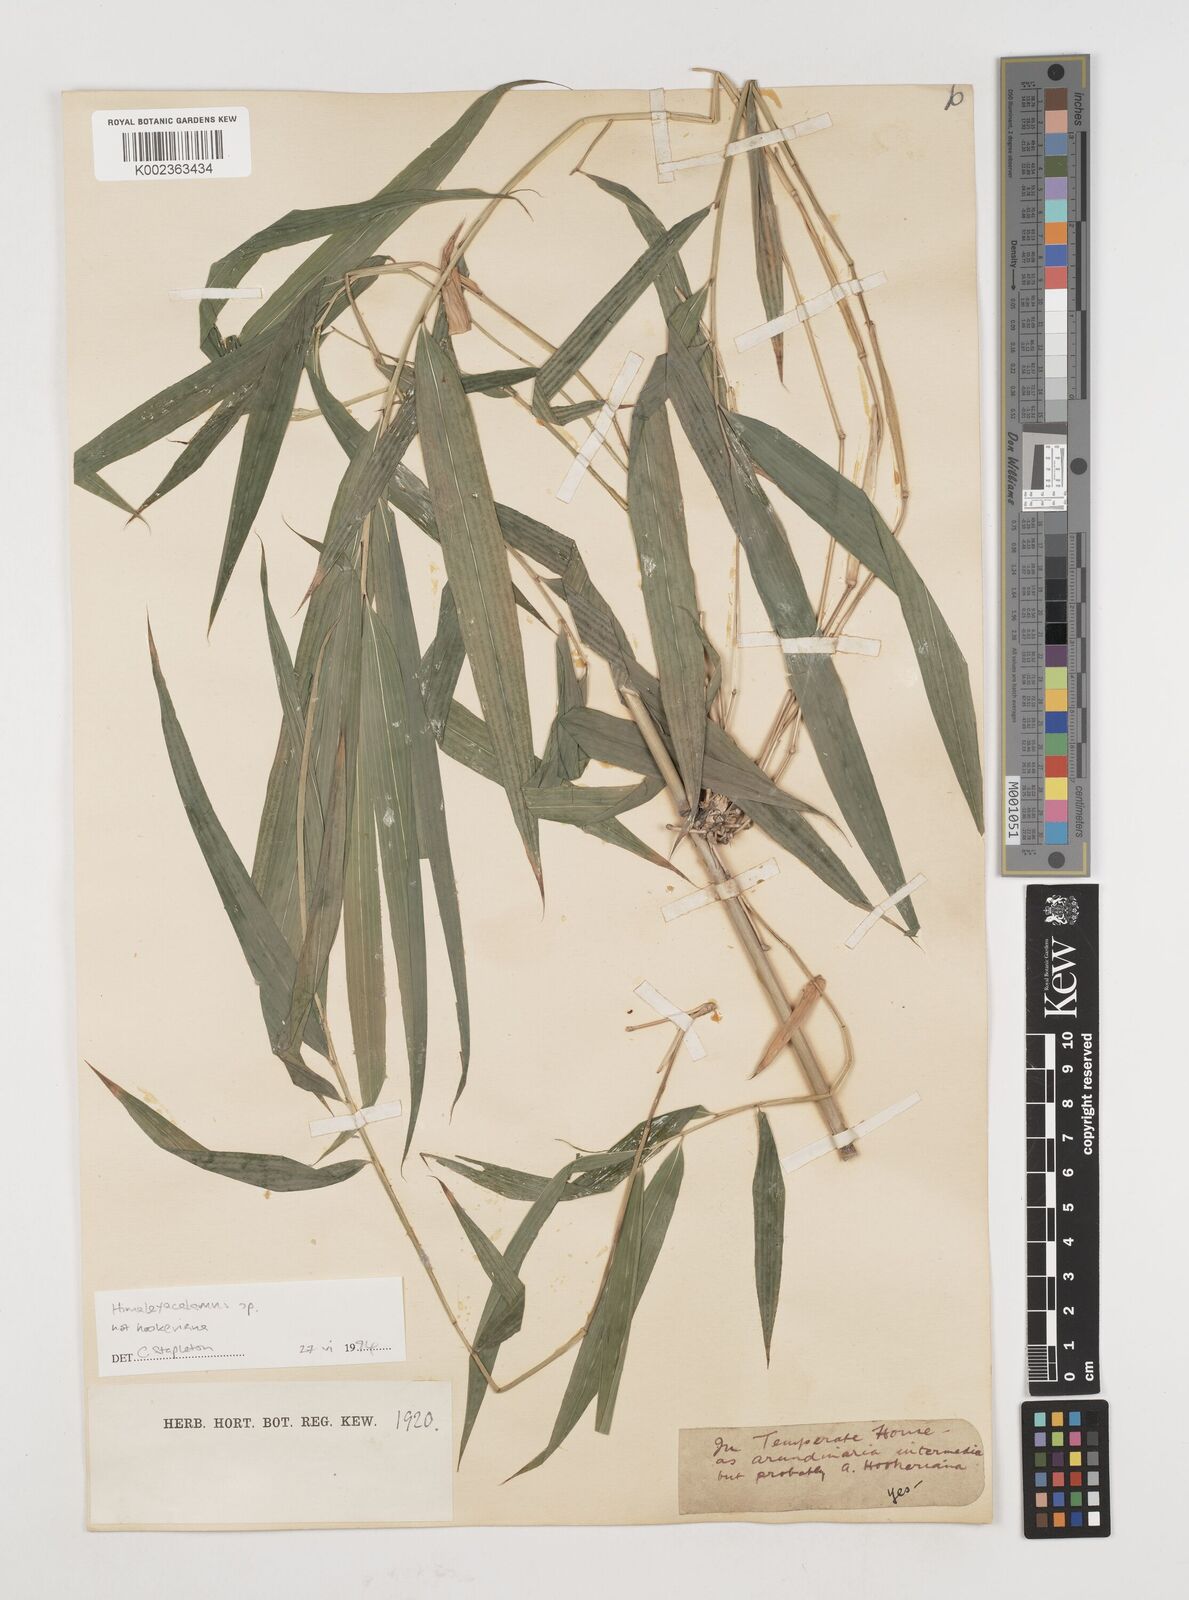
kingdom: Plantae
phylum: Tracheophyta
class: Liliopsida
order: Poales
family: Poaceae
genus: Himalayacalamus
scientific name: Himalayacalamus
